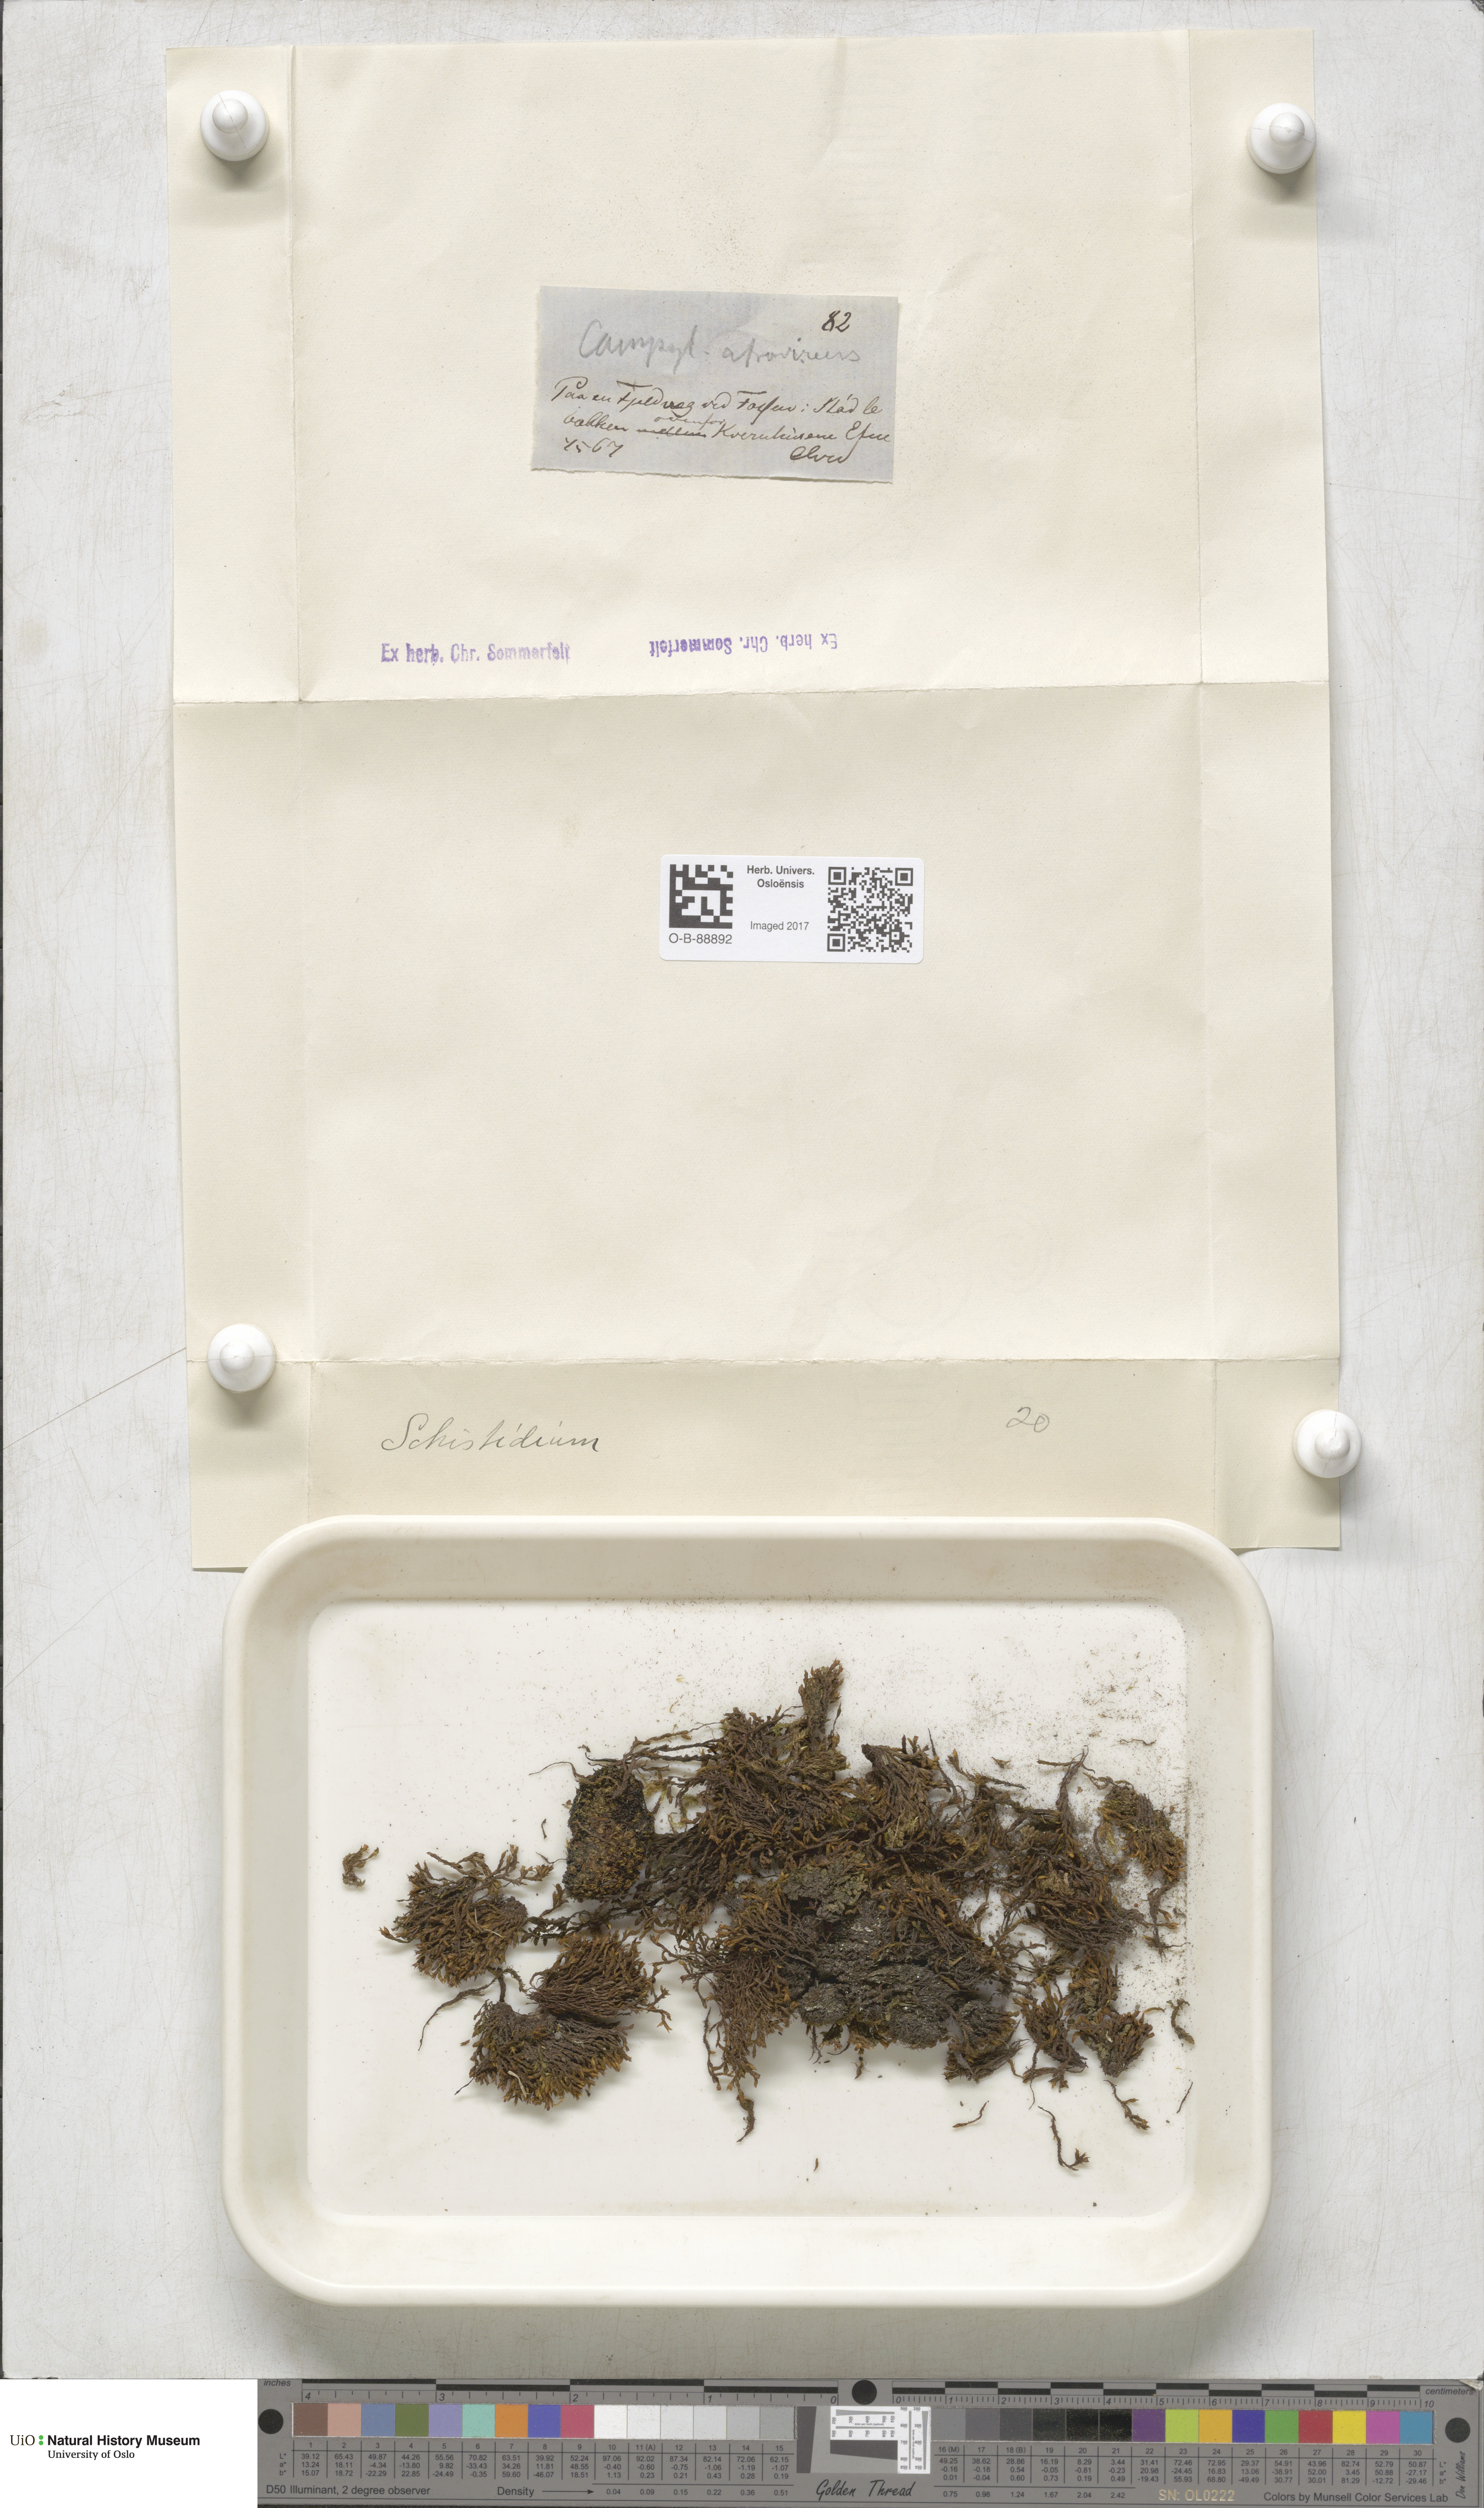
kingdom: Plantae
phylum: Bryophyta
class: Bryopsida
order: Grimmiales
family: Grimmiaceae
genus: Grimmia
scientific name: Grimmia
